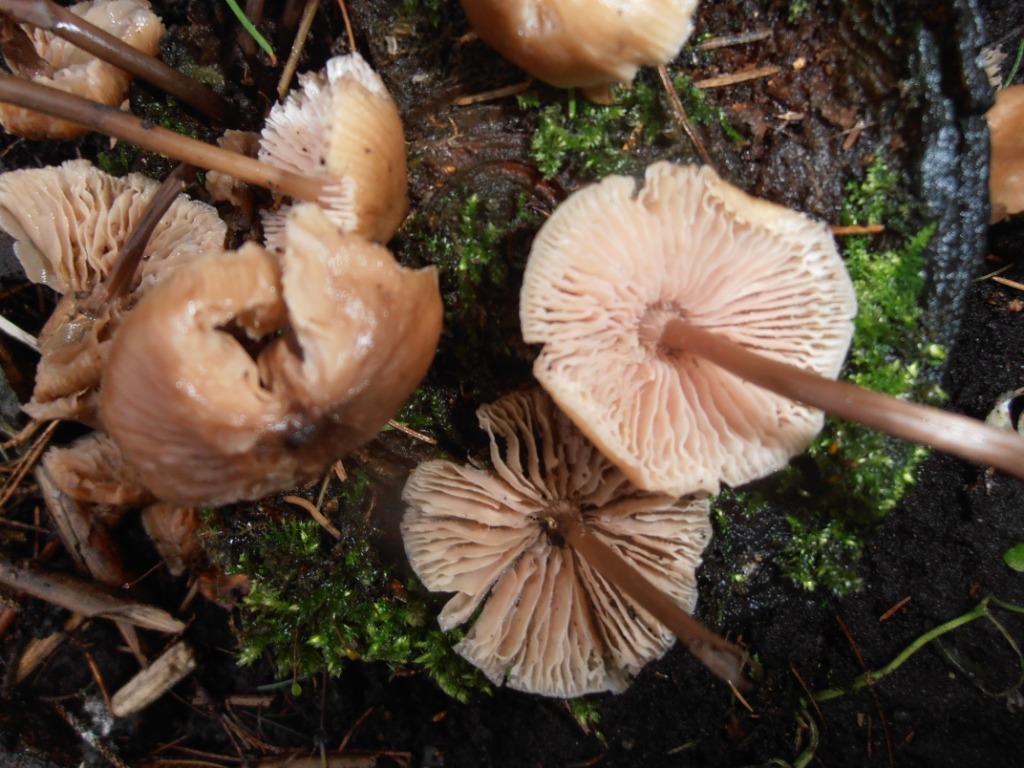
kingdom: Fungi
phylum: Basidiomycota
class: Agaricomycetes
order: Agaricales
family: Mycenaceae
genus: Mycena
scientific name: Mycena galericulata
